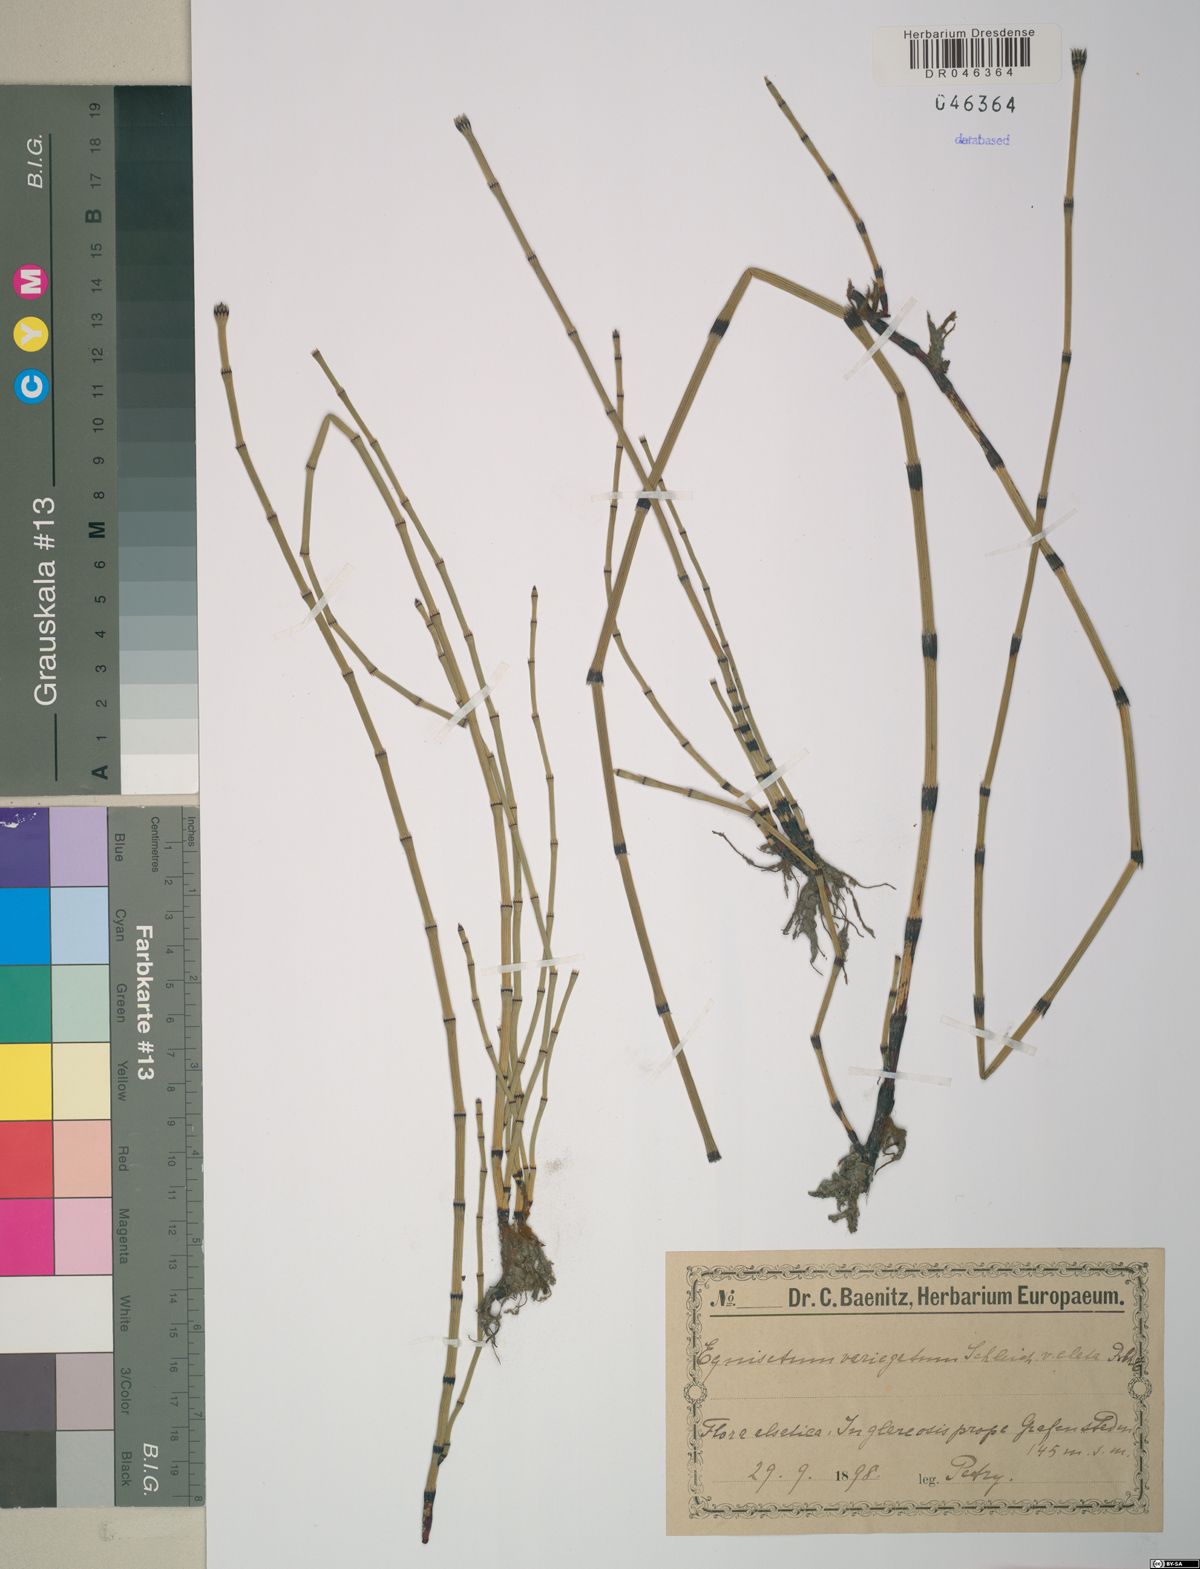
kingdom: Plantae
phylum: Tracheophyta
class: Polypodiopsida
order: Equisetales
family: Equisetaceae
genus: Equisetum
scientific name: Equisetum variegatum
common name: Variegated horsetail
